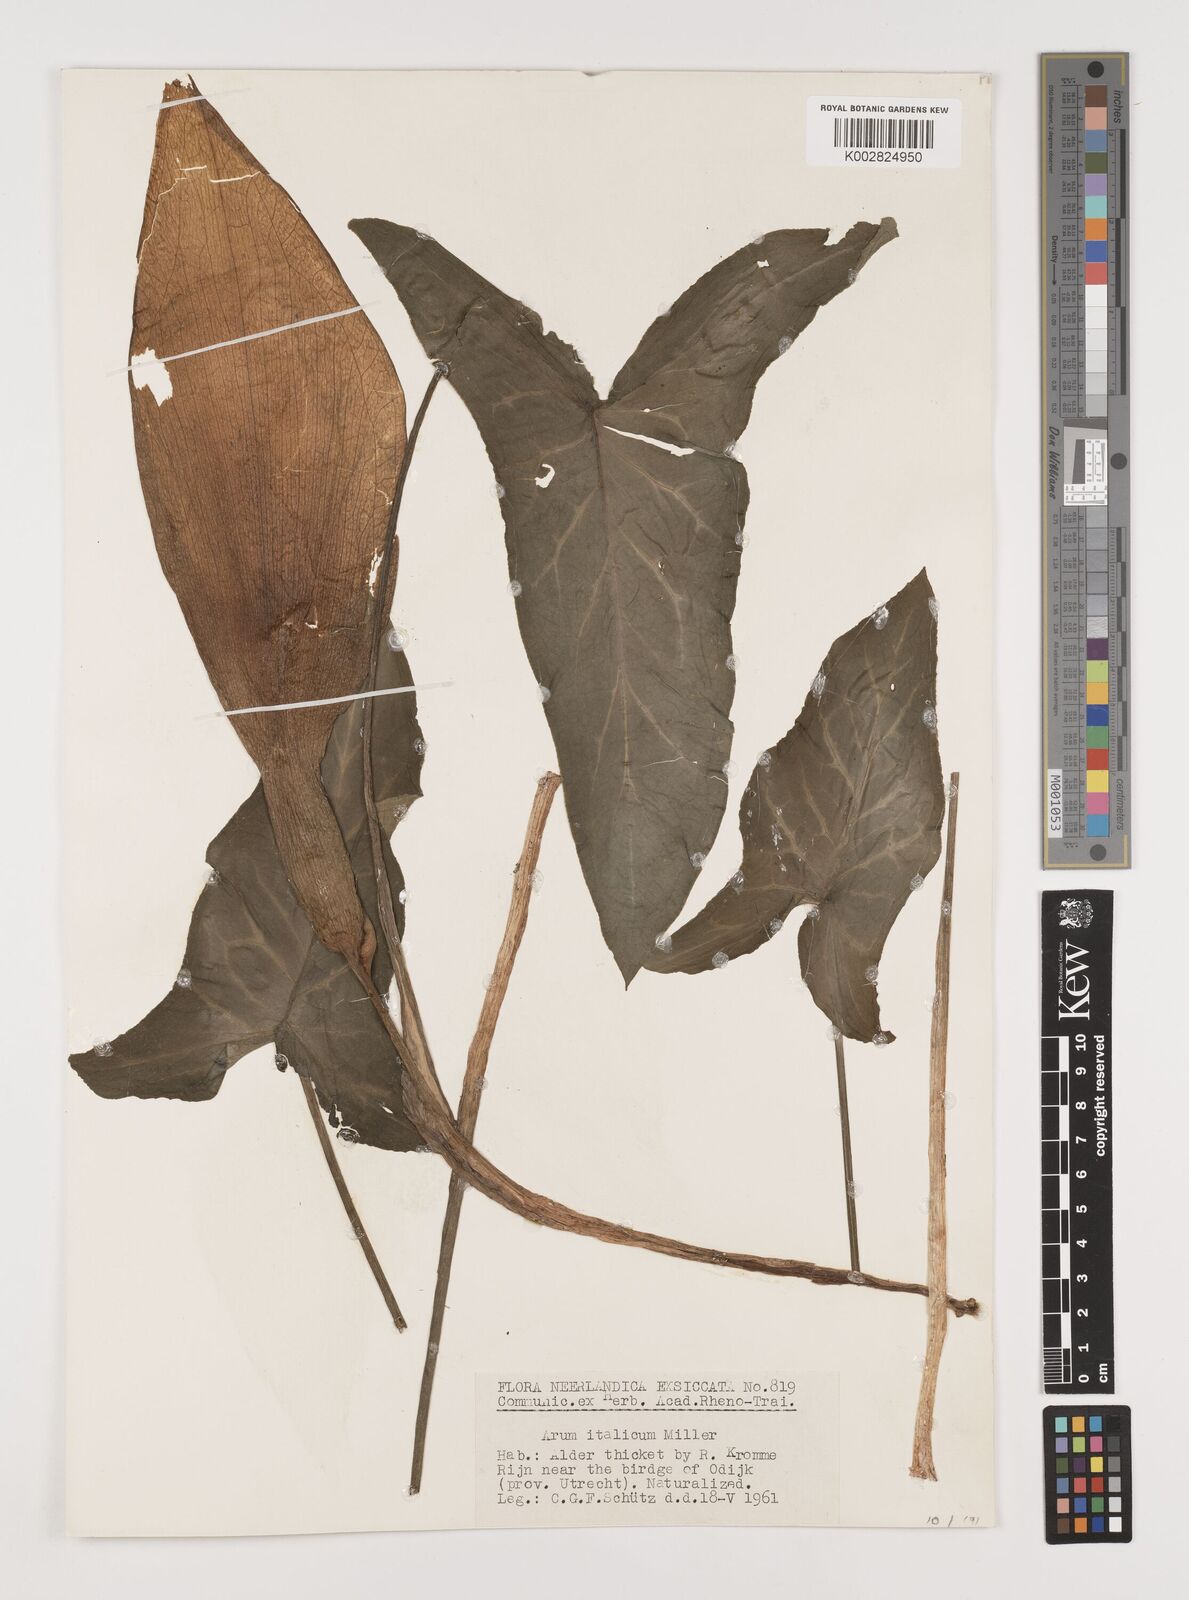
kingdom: Plantae
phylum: Tracheophyta
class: Liliopsida
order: Alismatales
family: Araceae
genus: Arum
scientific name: Arum italicum
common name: Italian lords-and-ladies
